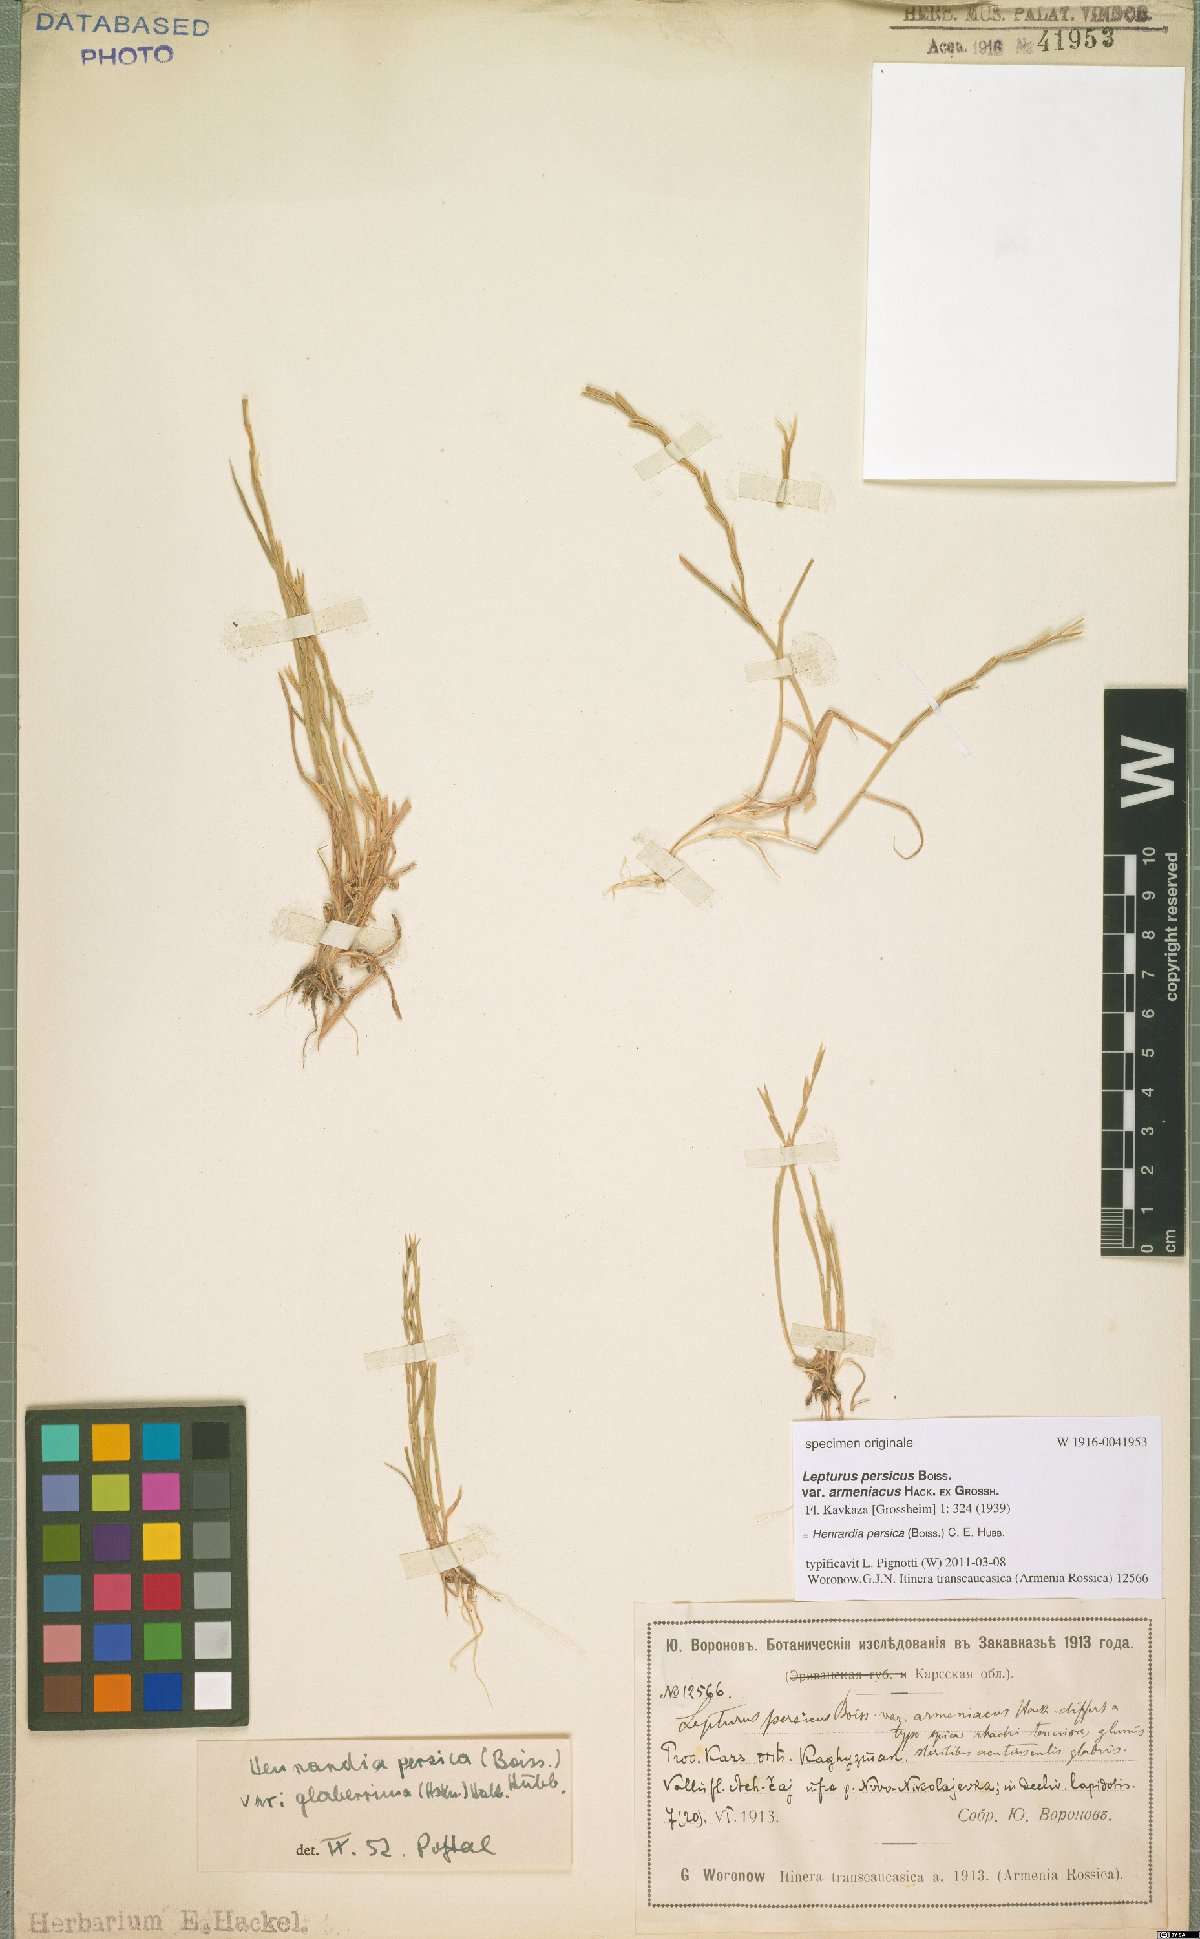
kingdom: Plantae
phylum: Tracheophyta
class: Liliopsida
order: Poales
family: Poaceae
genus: Henrardia
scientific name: Henrardia persica
